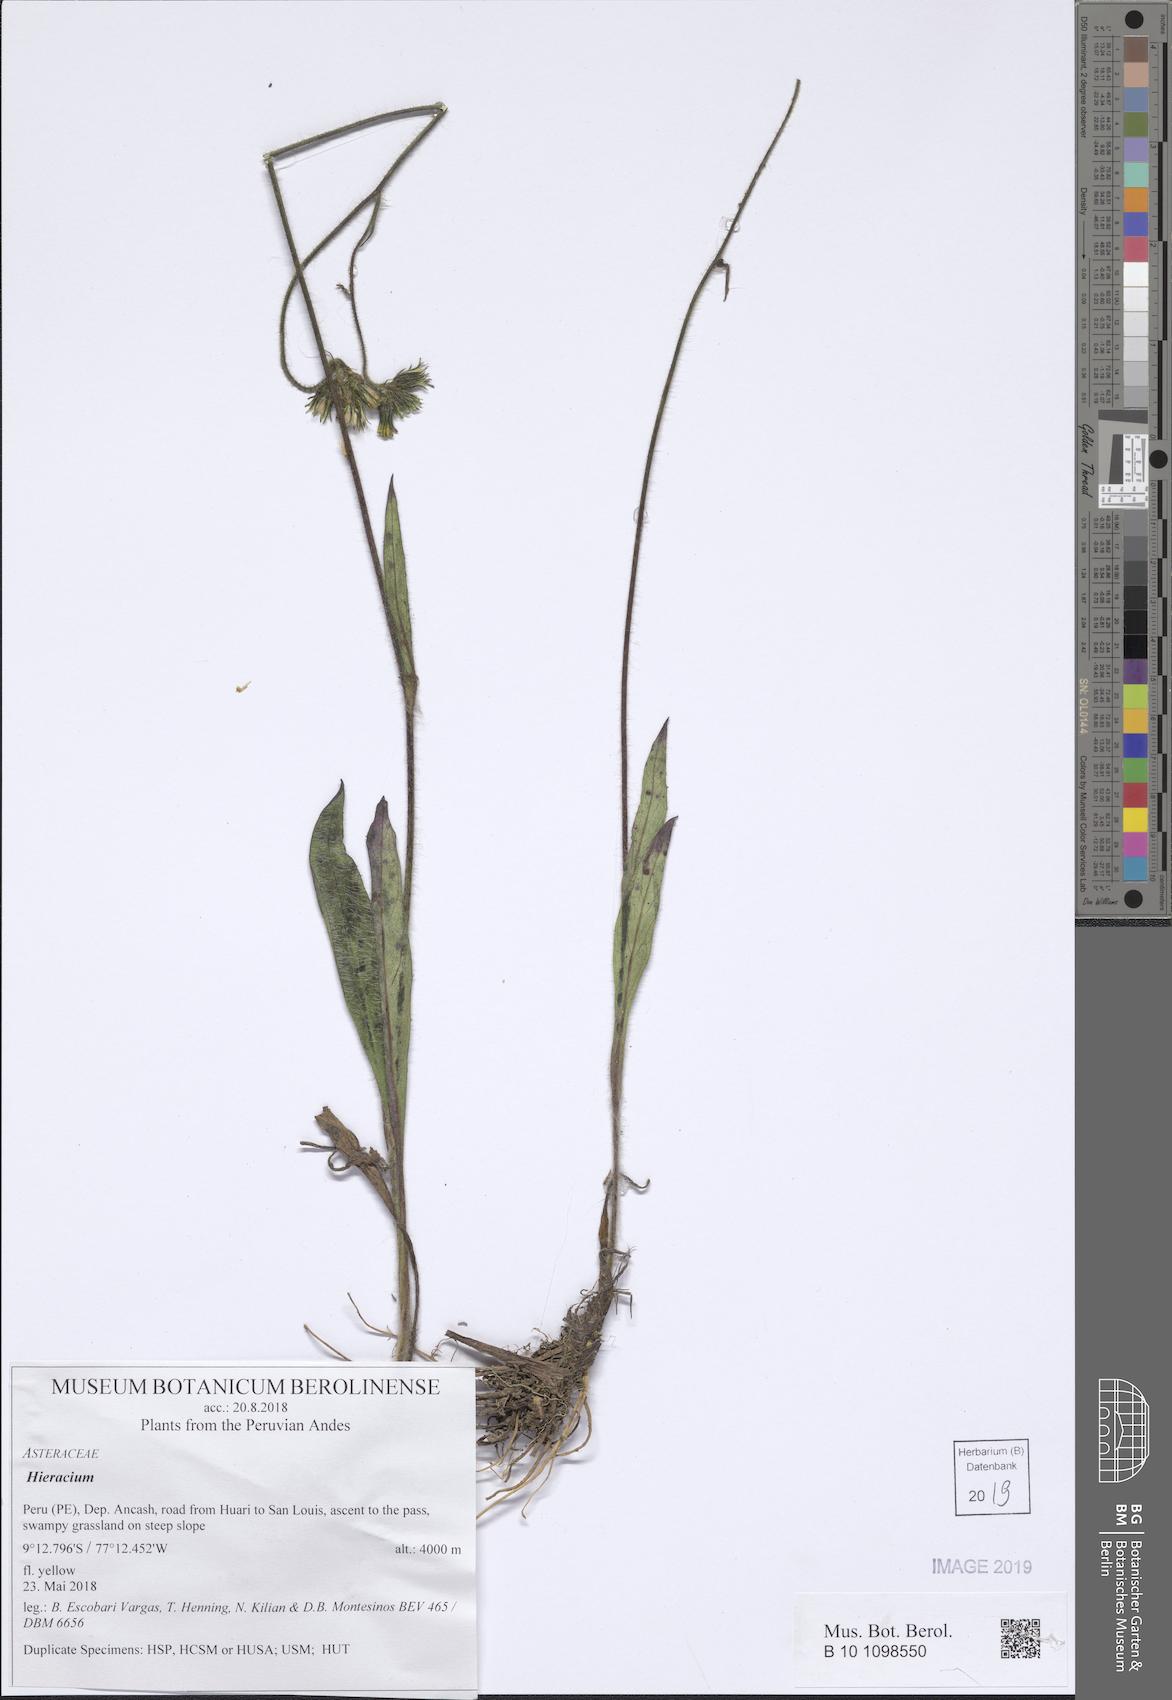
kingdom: Plantae
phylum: Tracheophyta
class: Magnoliopsida
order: Asterales
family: Asteraceae
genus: Hieracium
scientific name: Hieracium
